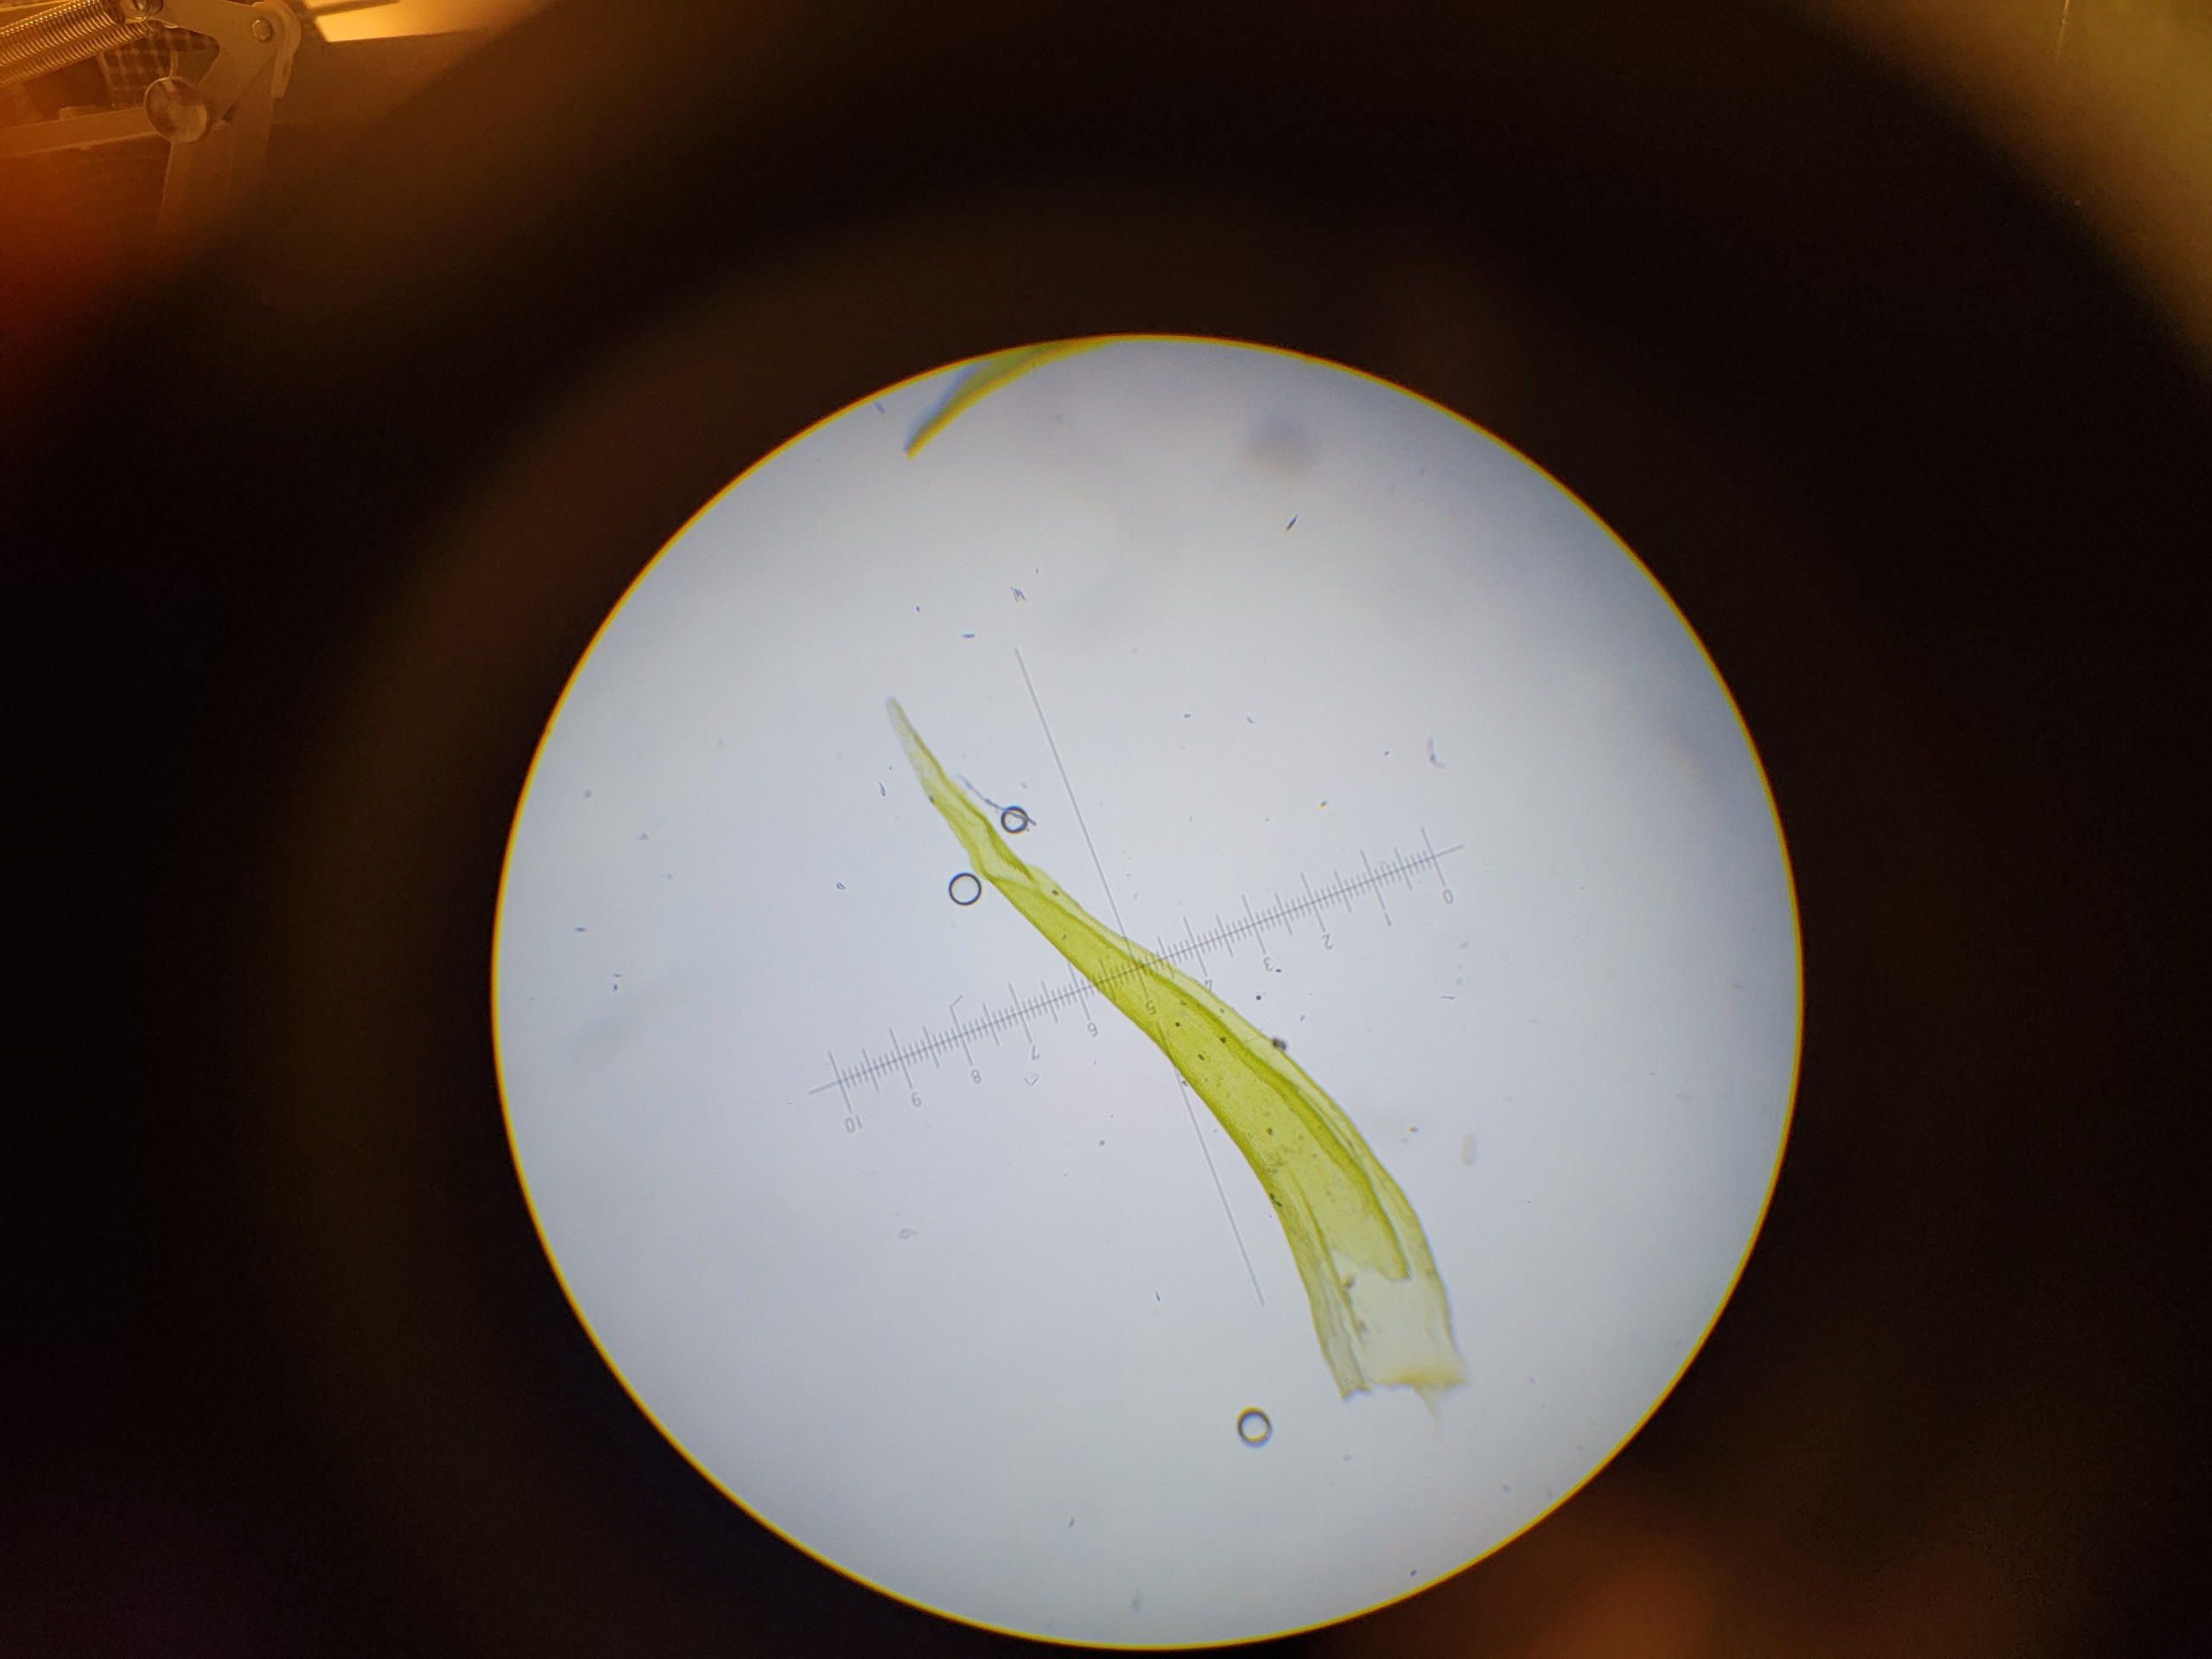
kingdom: Plantae
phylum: Bryophyta
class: Bryopsida
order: Grimmiales
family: Grimmiaceae
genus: Dilutineuron
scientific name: Dilutineuron fasciculare
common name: Knippe-børstemos
